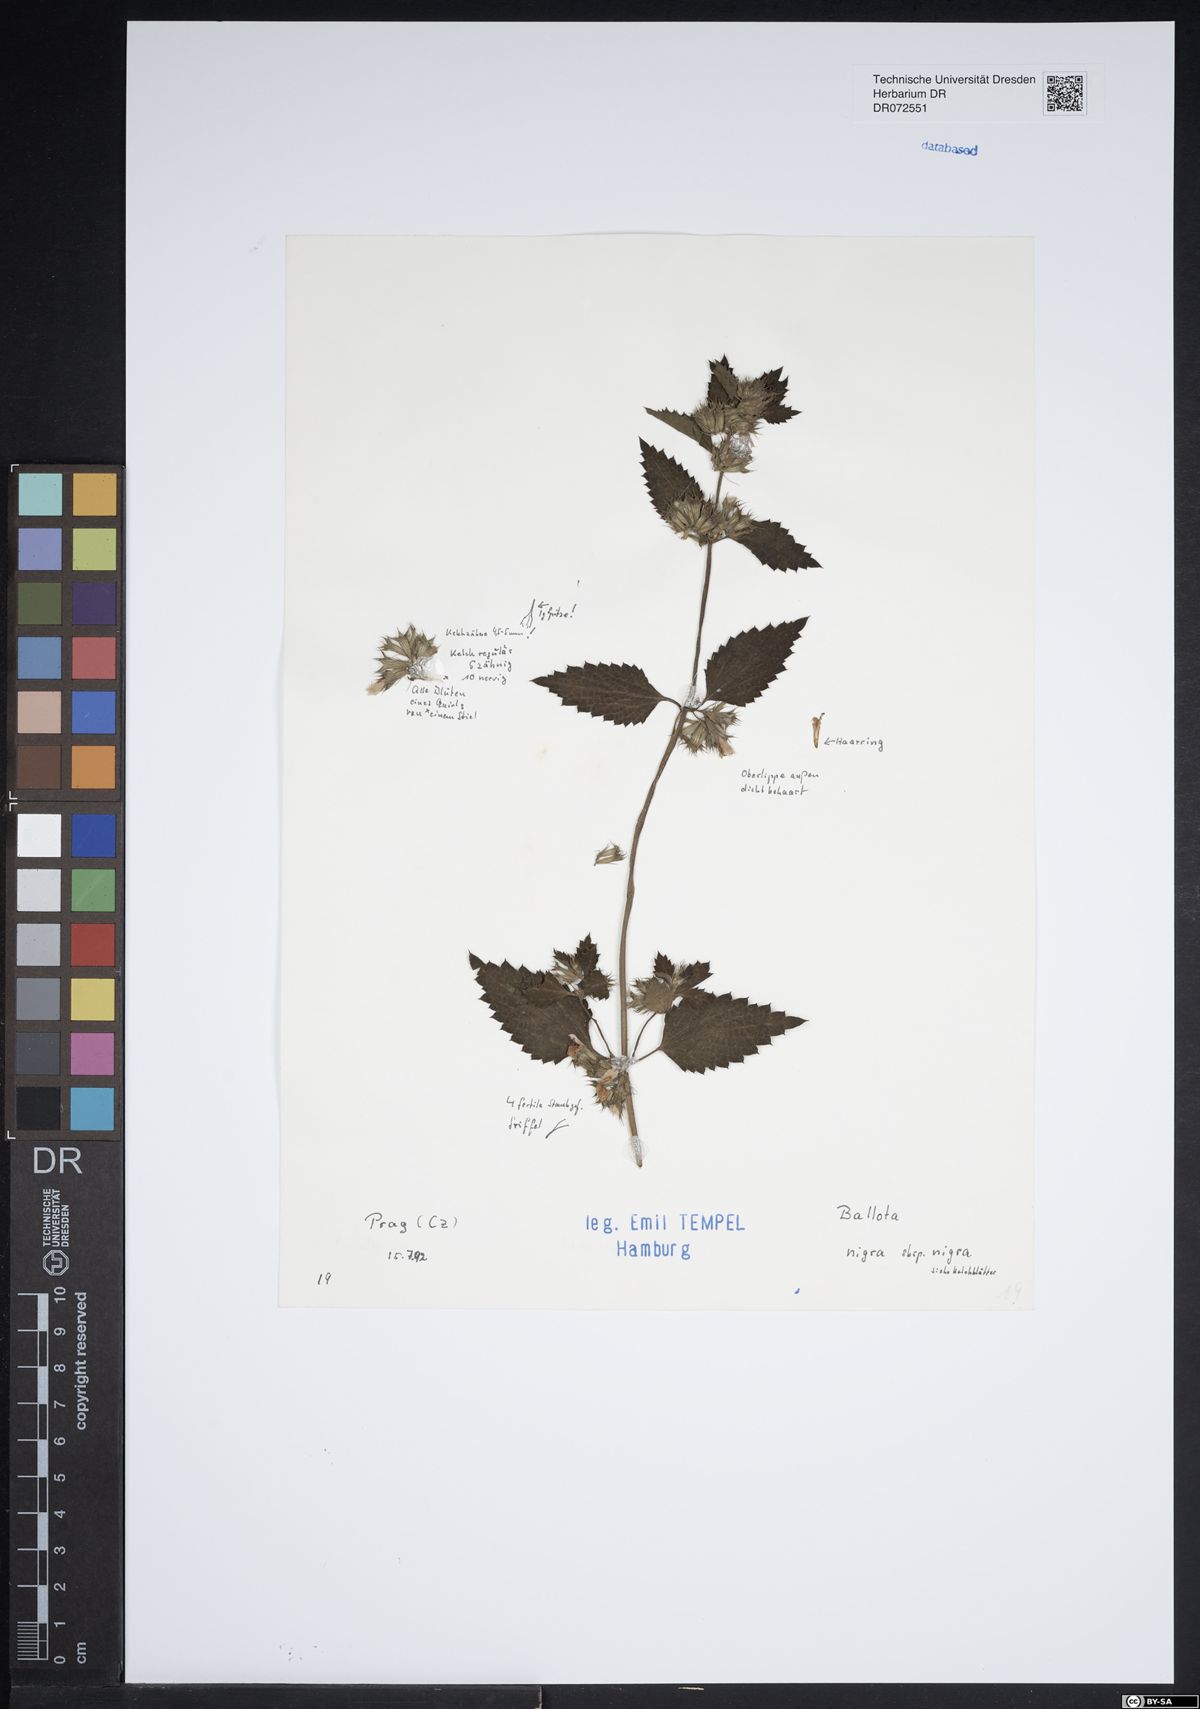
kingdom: Plantae
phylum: Tracheophyta
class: Magnoliopsida
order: Lamiales
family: Lamiaceae
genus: Ballota
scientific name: Ballota nigra
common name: Black horehound
